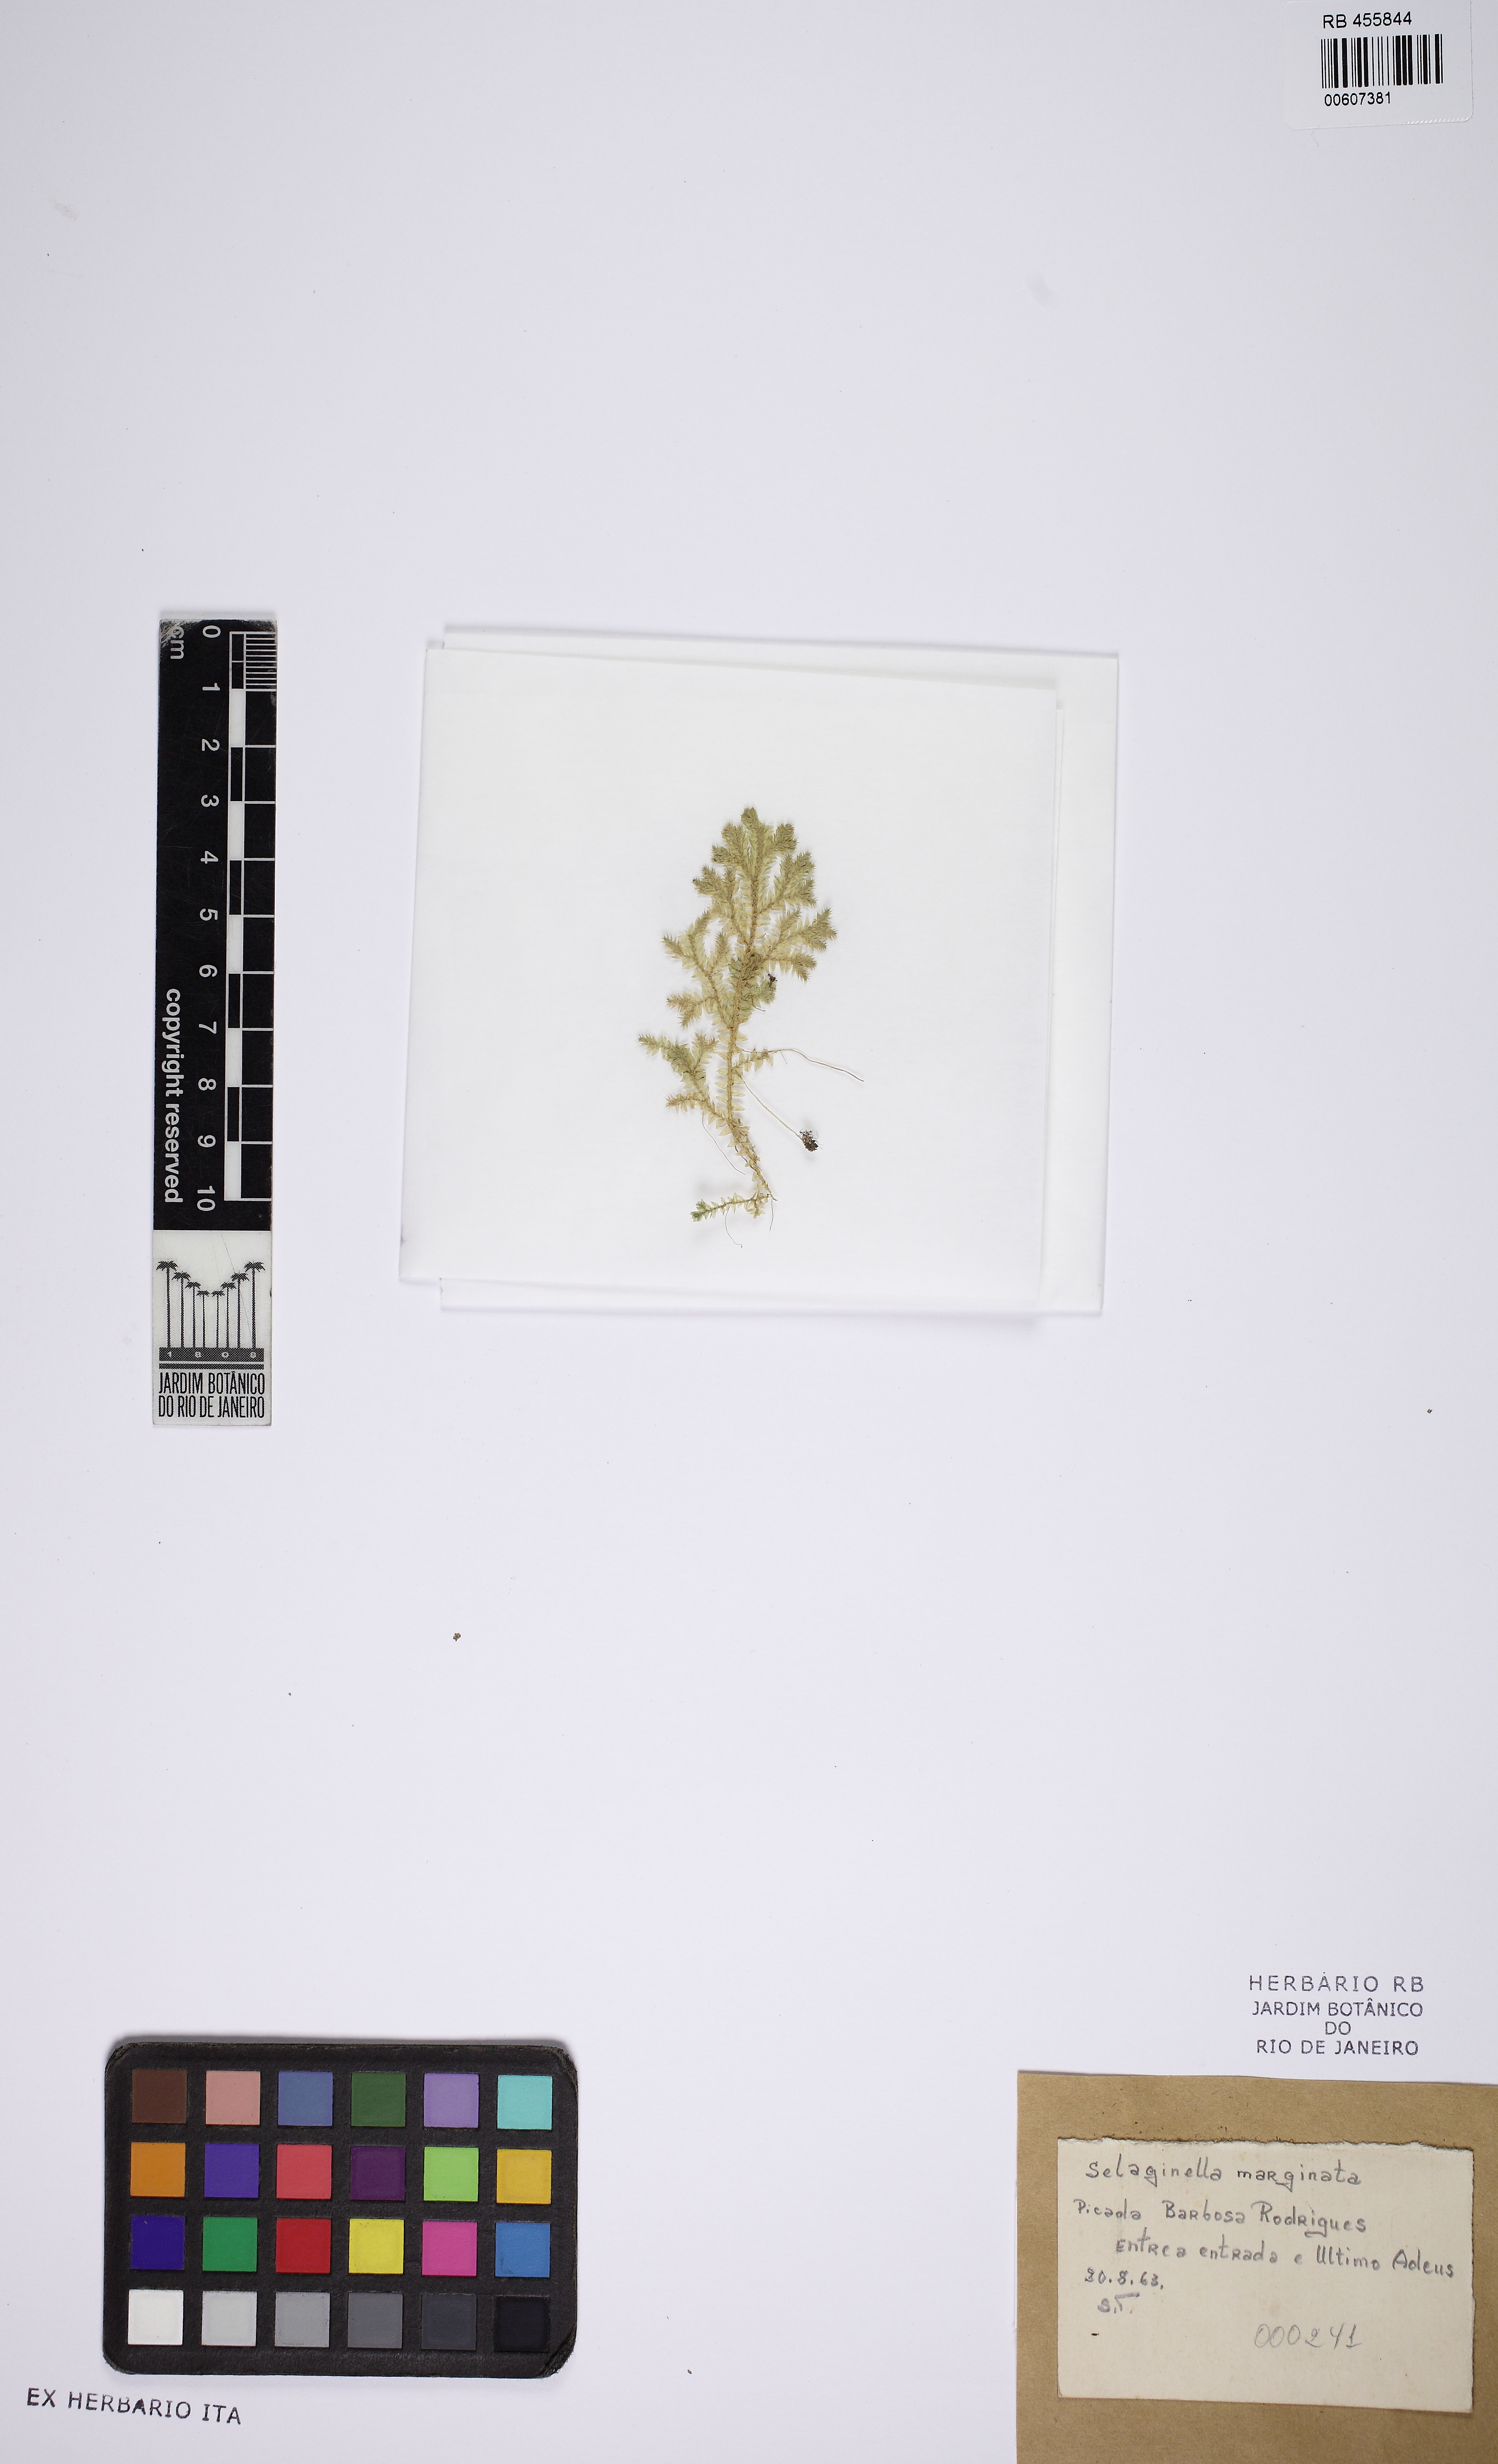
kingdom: Plantae
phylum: Tracheophyta
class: Lycopodiopsida
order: Selaginellales
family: Selaginellaceae
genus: Selaginella
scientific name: Selaginella muscosa
